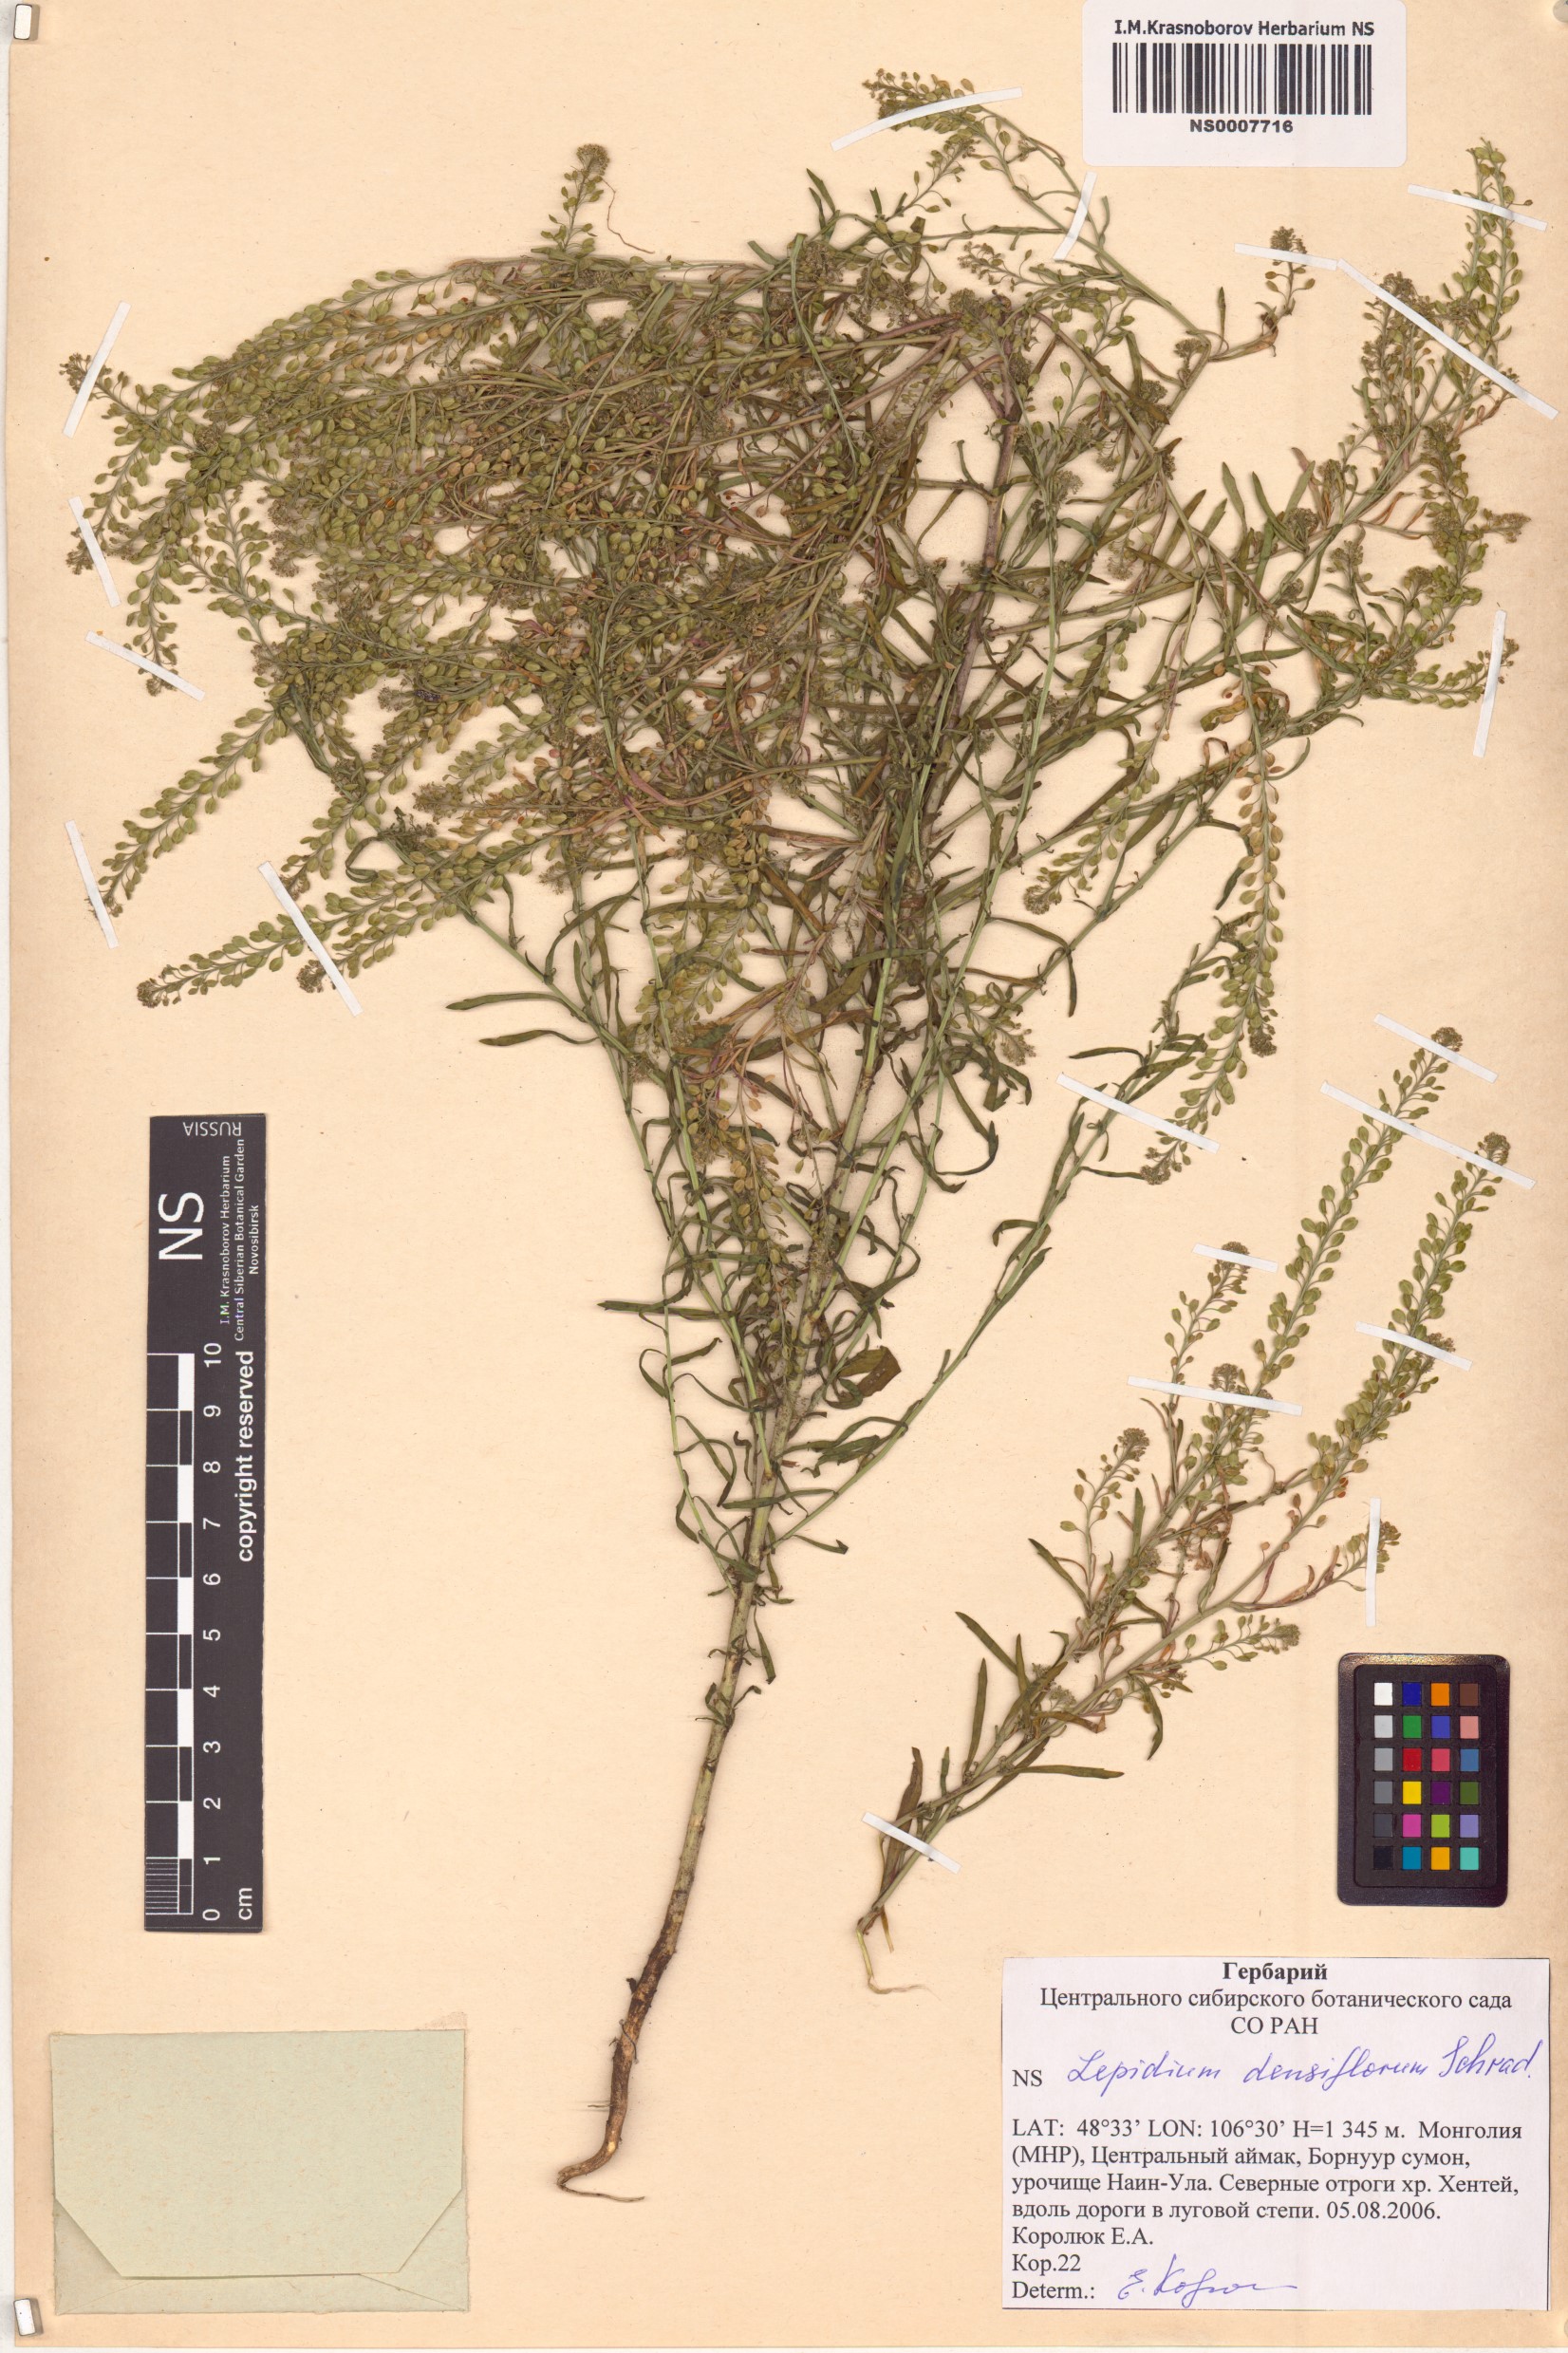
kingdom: Plantae
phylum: Tracheophyta
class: Magnoliopsida
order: Brassicales
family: Brassicaceae
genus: Lepidium
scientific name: Lepidium densiflorum
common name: Miner's pepperwort
